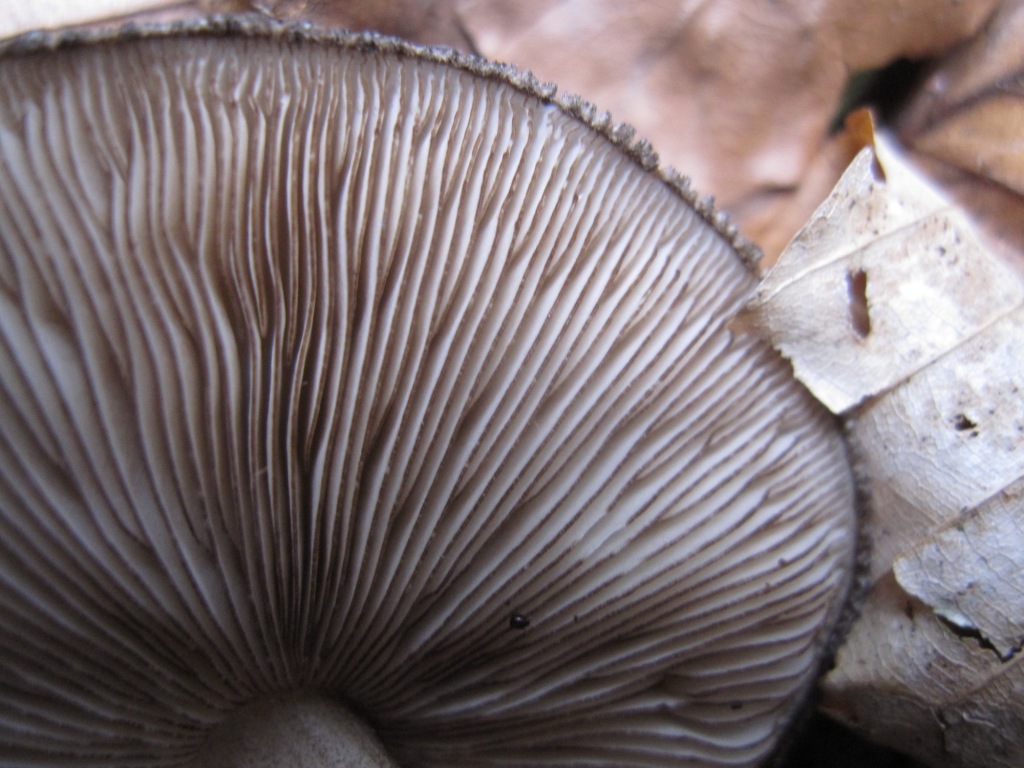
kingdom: Fungi
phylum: Basidiomycota
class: Agaricomycetes
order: Agaricales
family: Pluteaceae
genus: Pluteus
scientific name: Pluteus umbrosus
